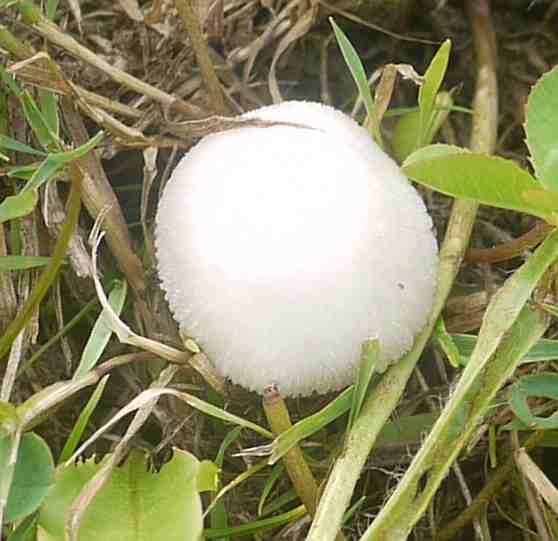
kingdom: Fungi
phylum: Basidiomycota
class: Agaricomycetes
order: Agaricales
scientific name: Agaricales
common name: champignonordenen
